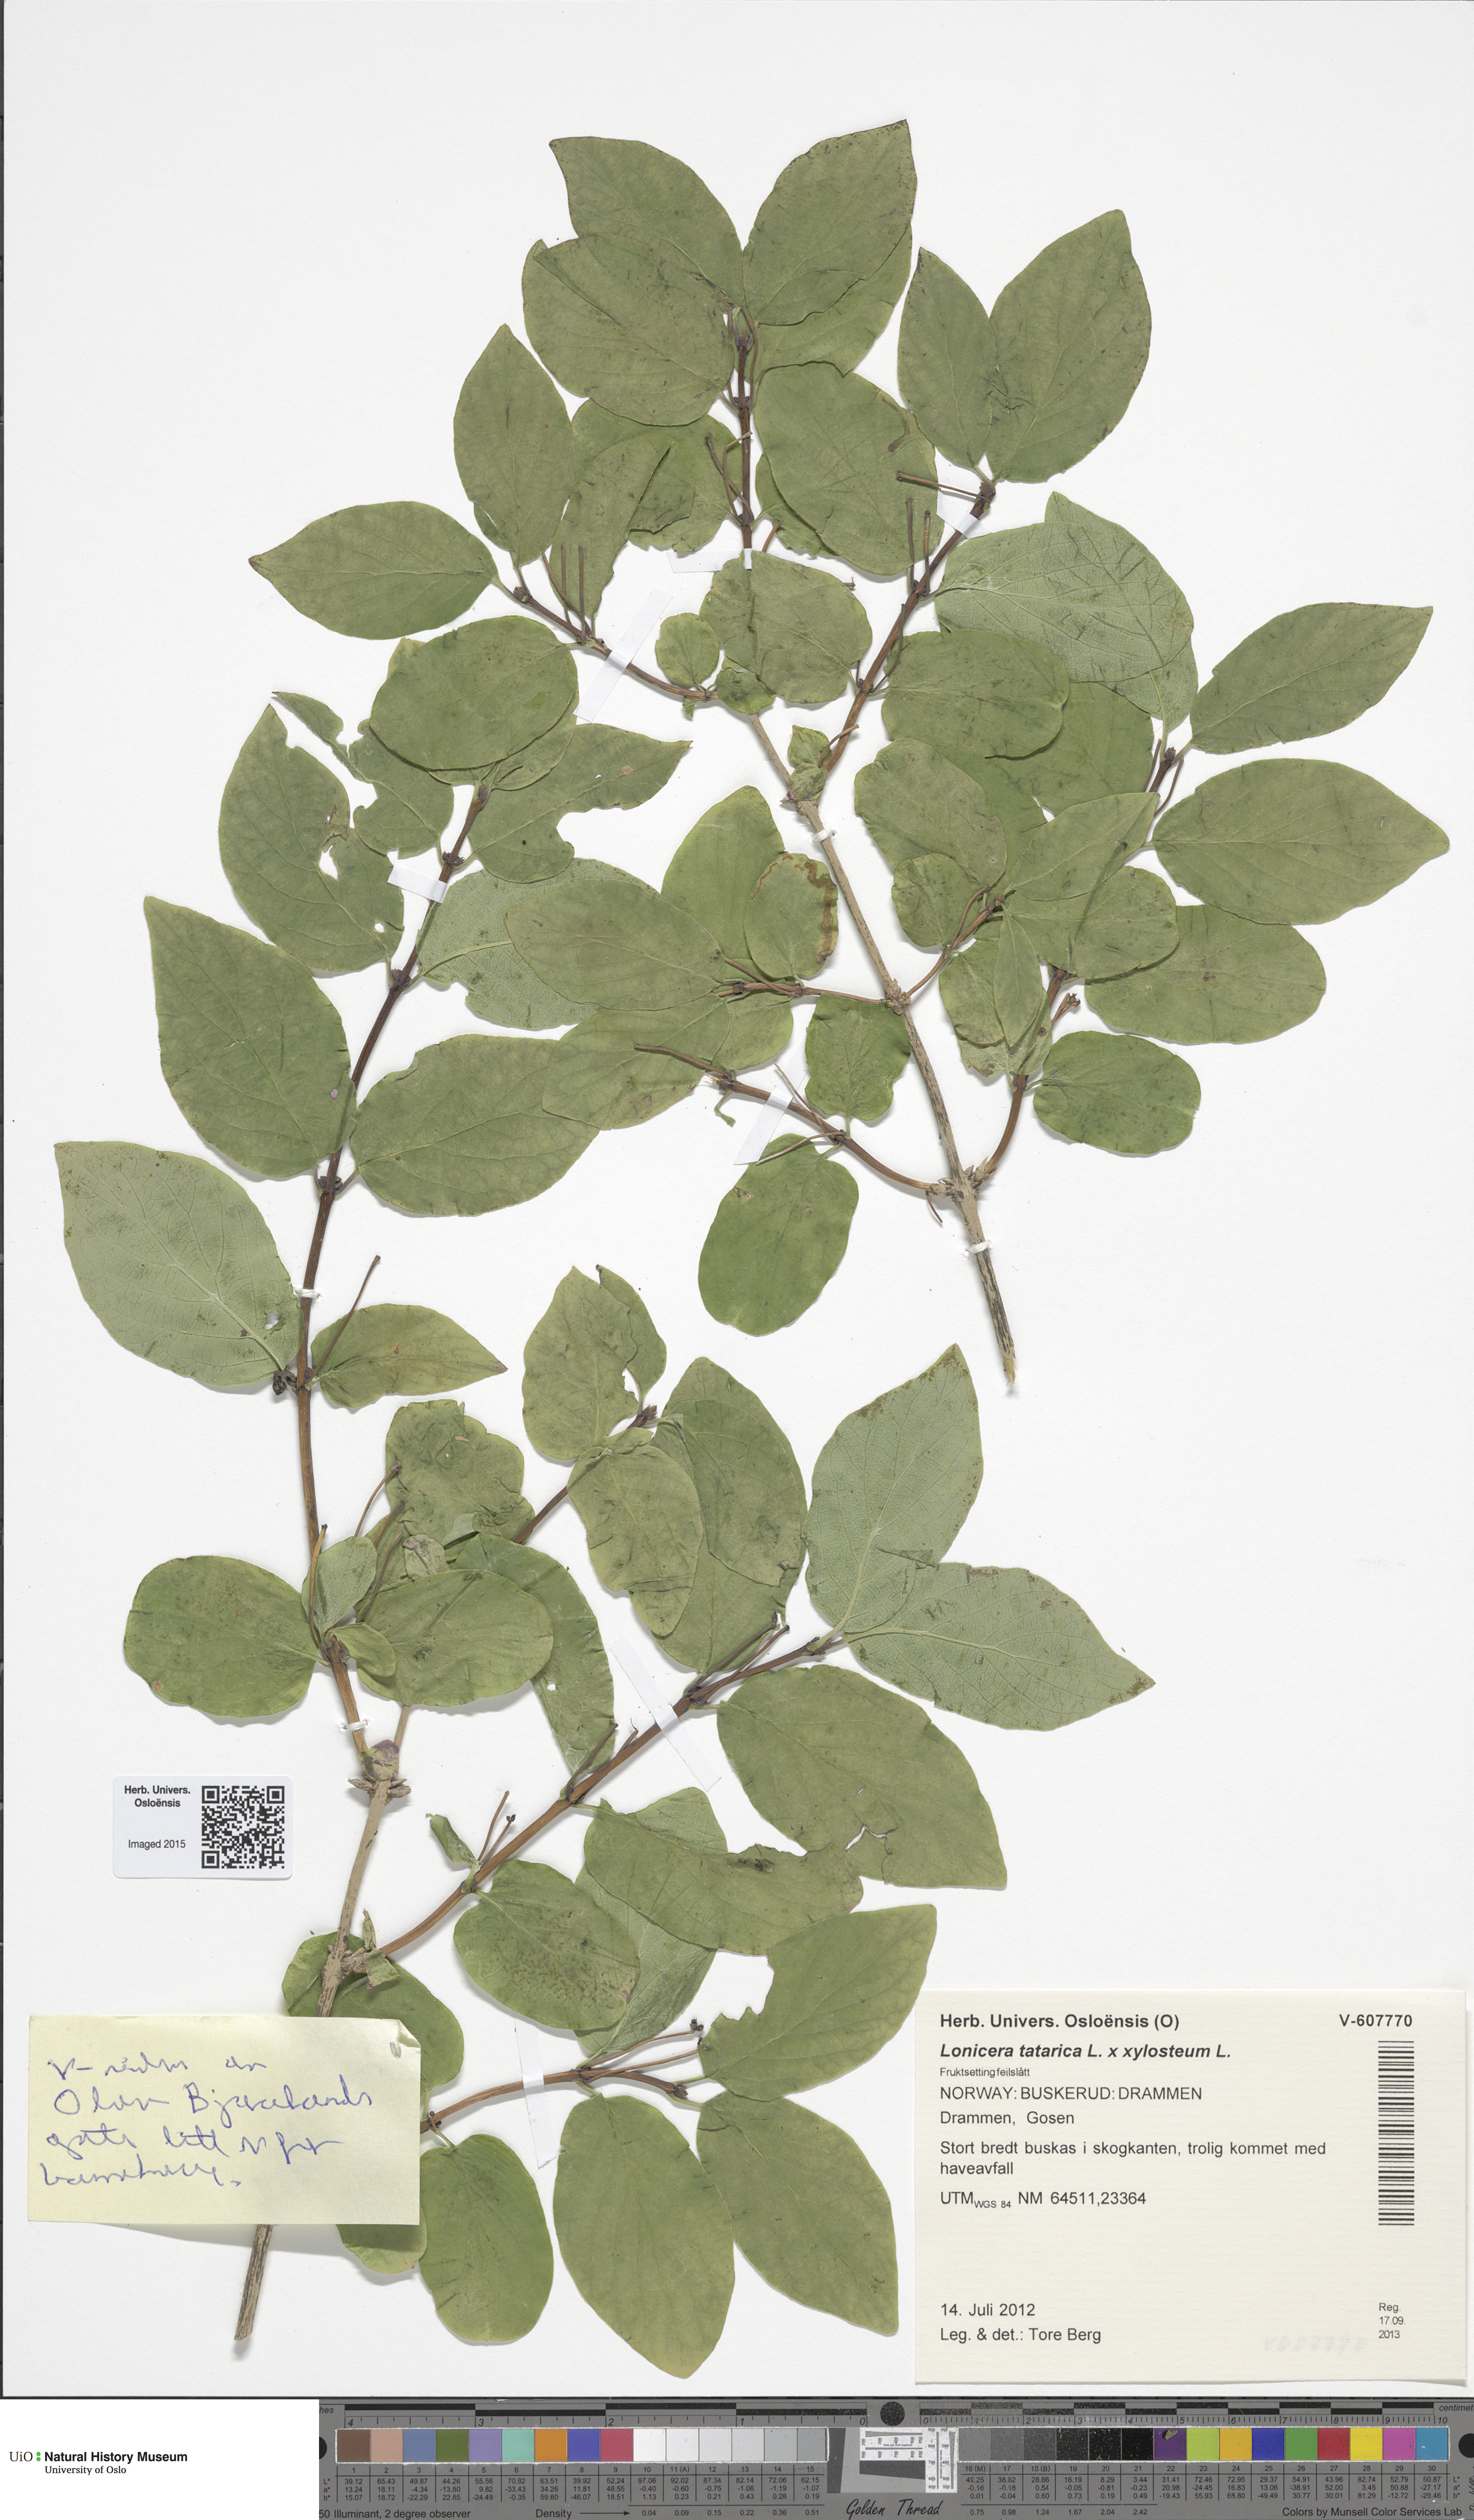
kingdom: Plantae
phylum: Tracheophyta
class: Magnoliopsida
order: Dipsacales
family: Caprifoliaceae
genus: Lonicera
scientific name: Lonicera
